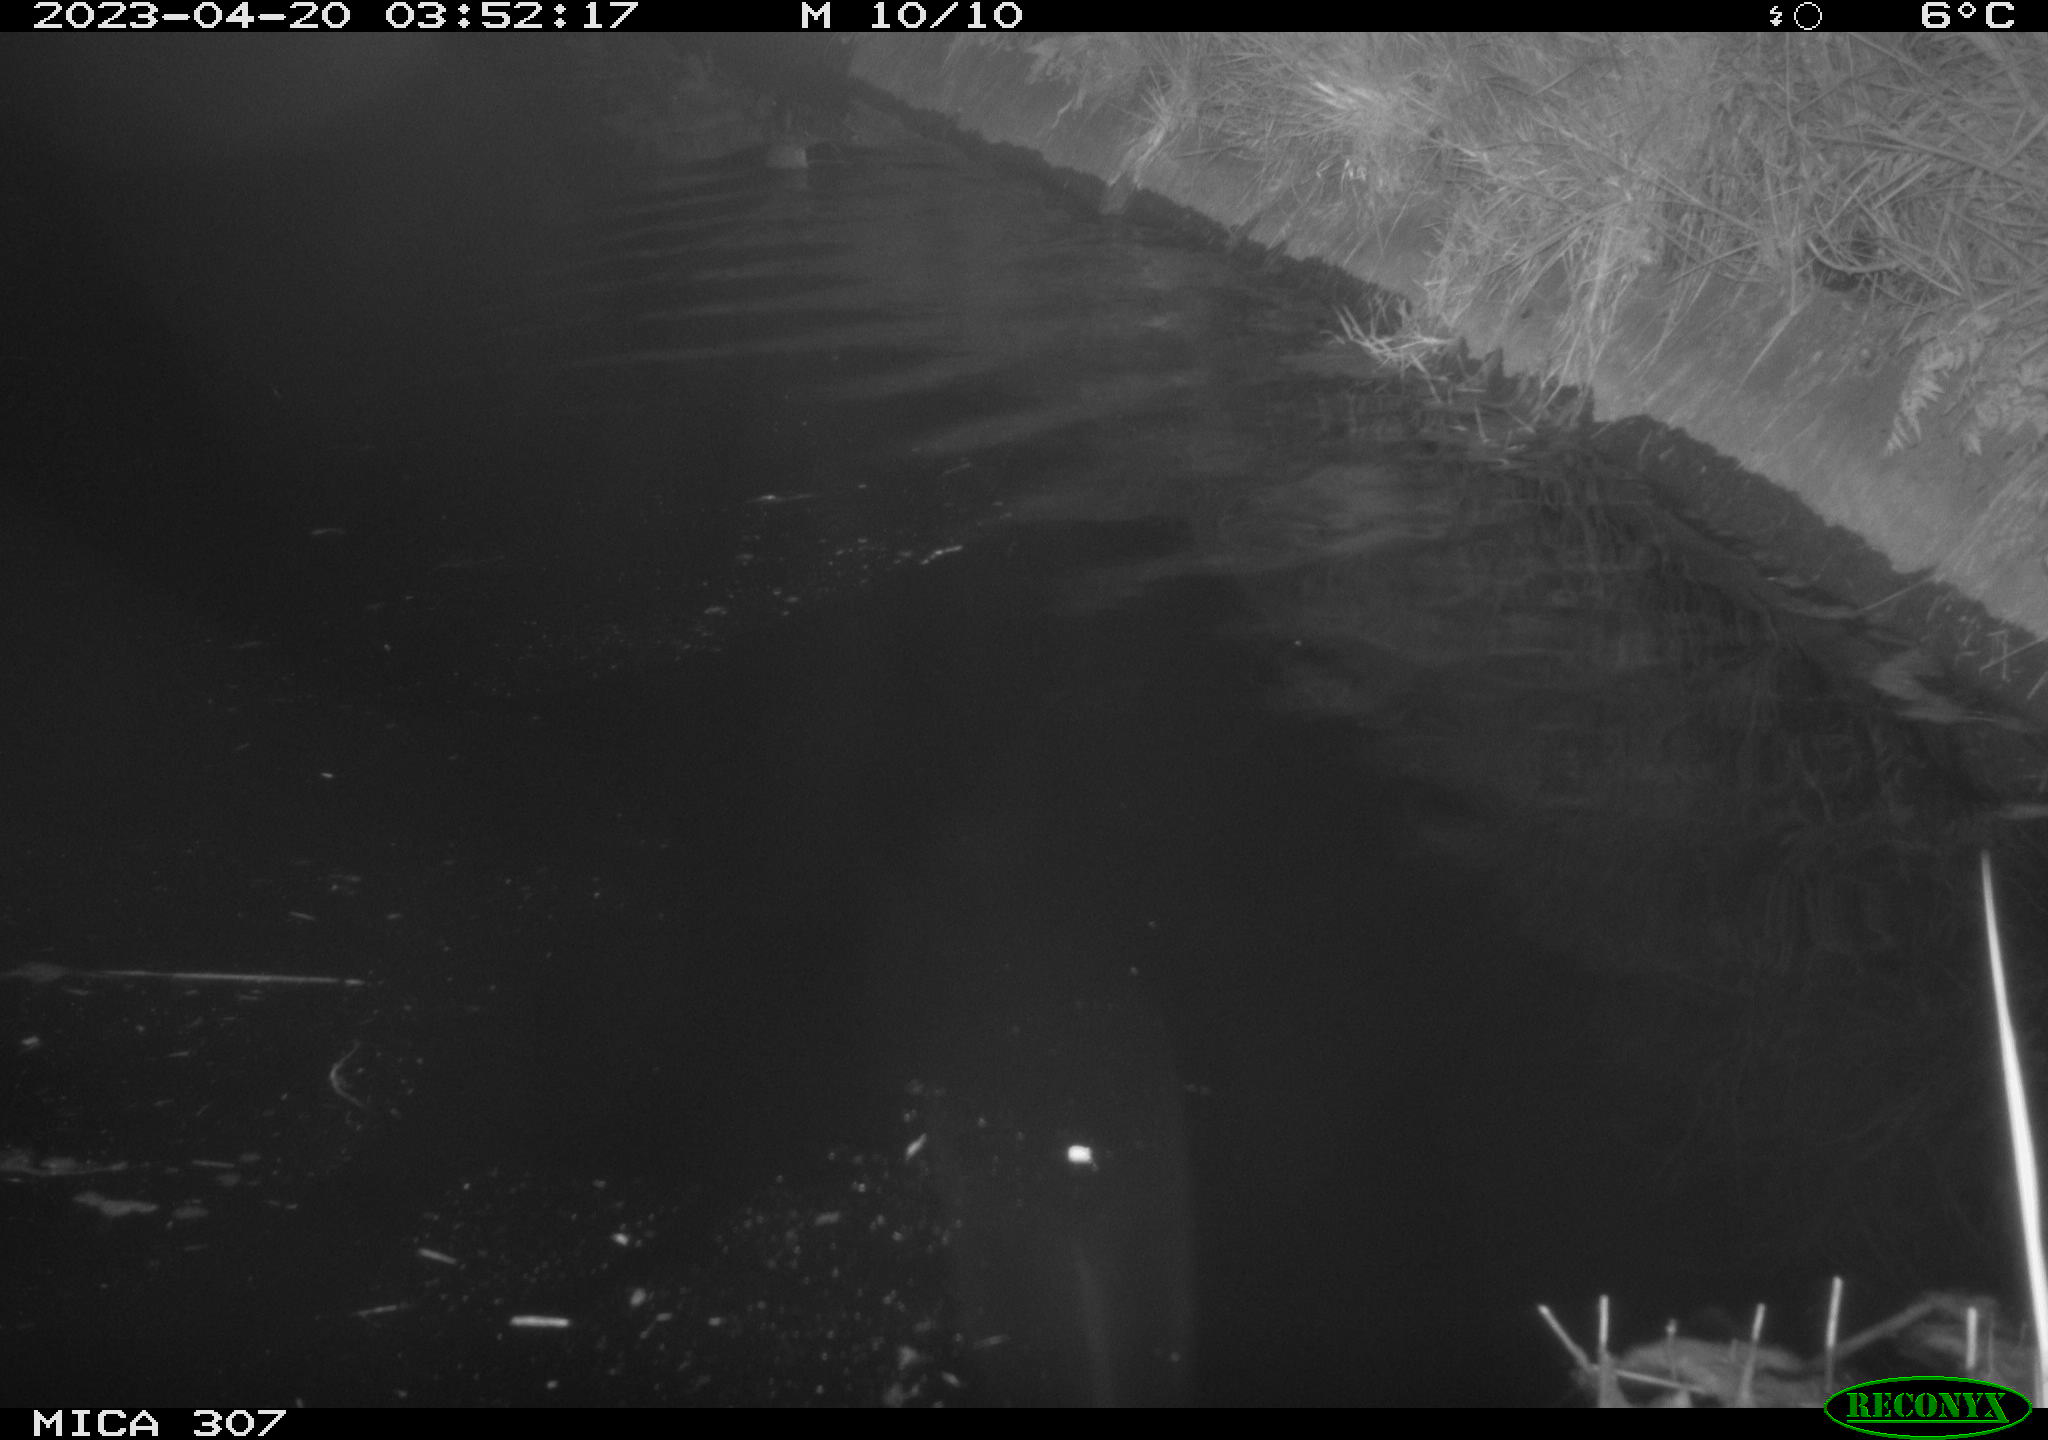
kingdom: Animalia
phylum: Chordata
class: Aves
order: Anseriformes
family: Anatidae
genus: Anas
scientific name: Anas
